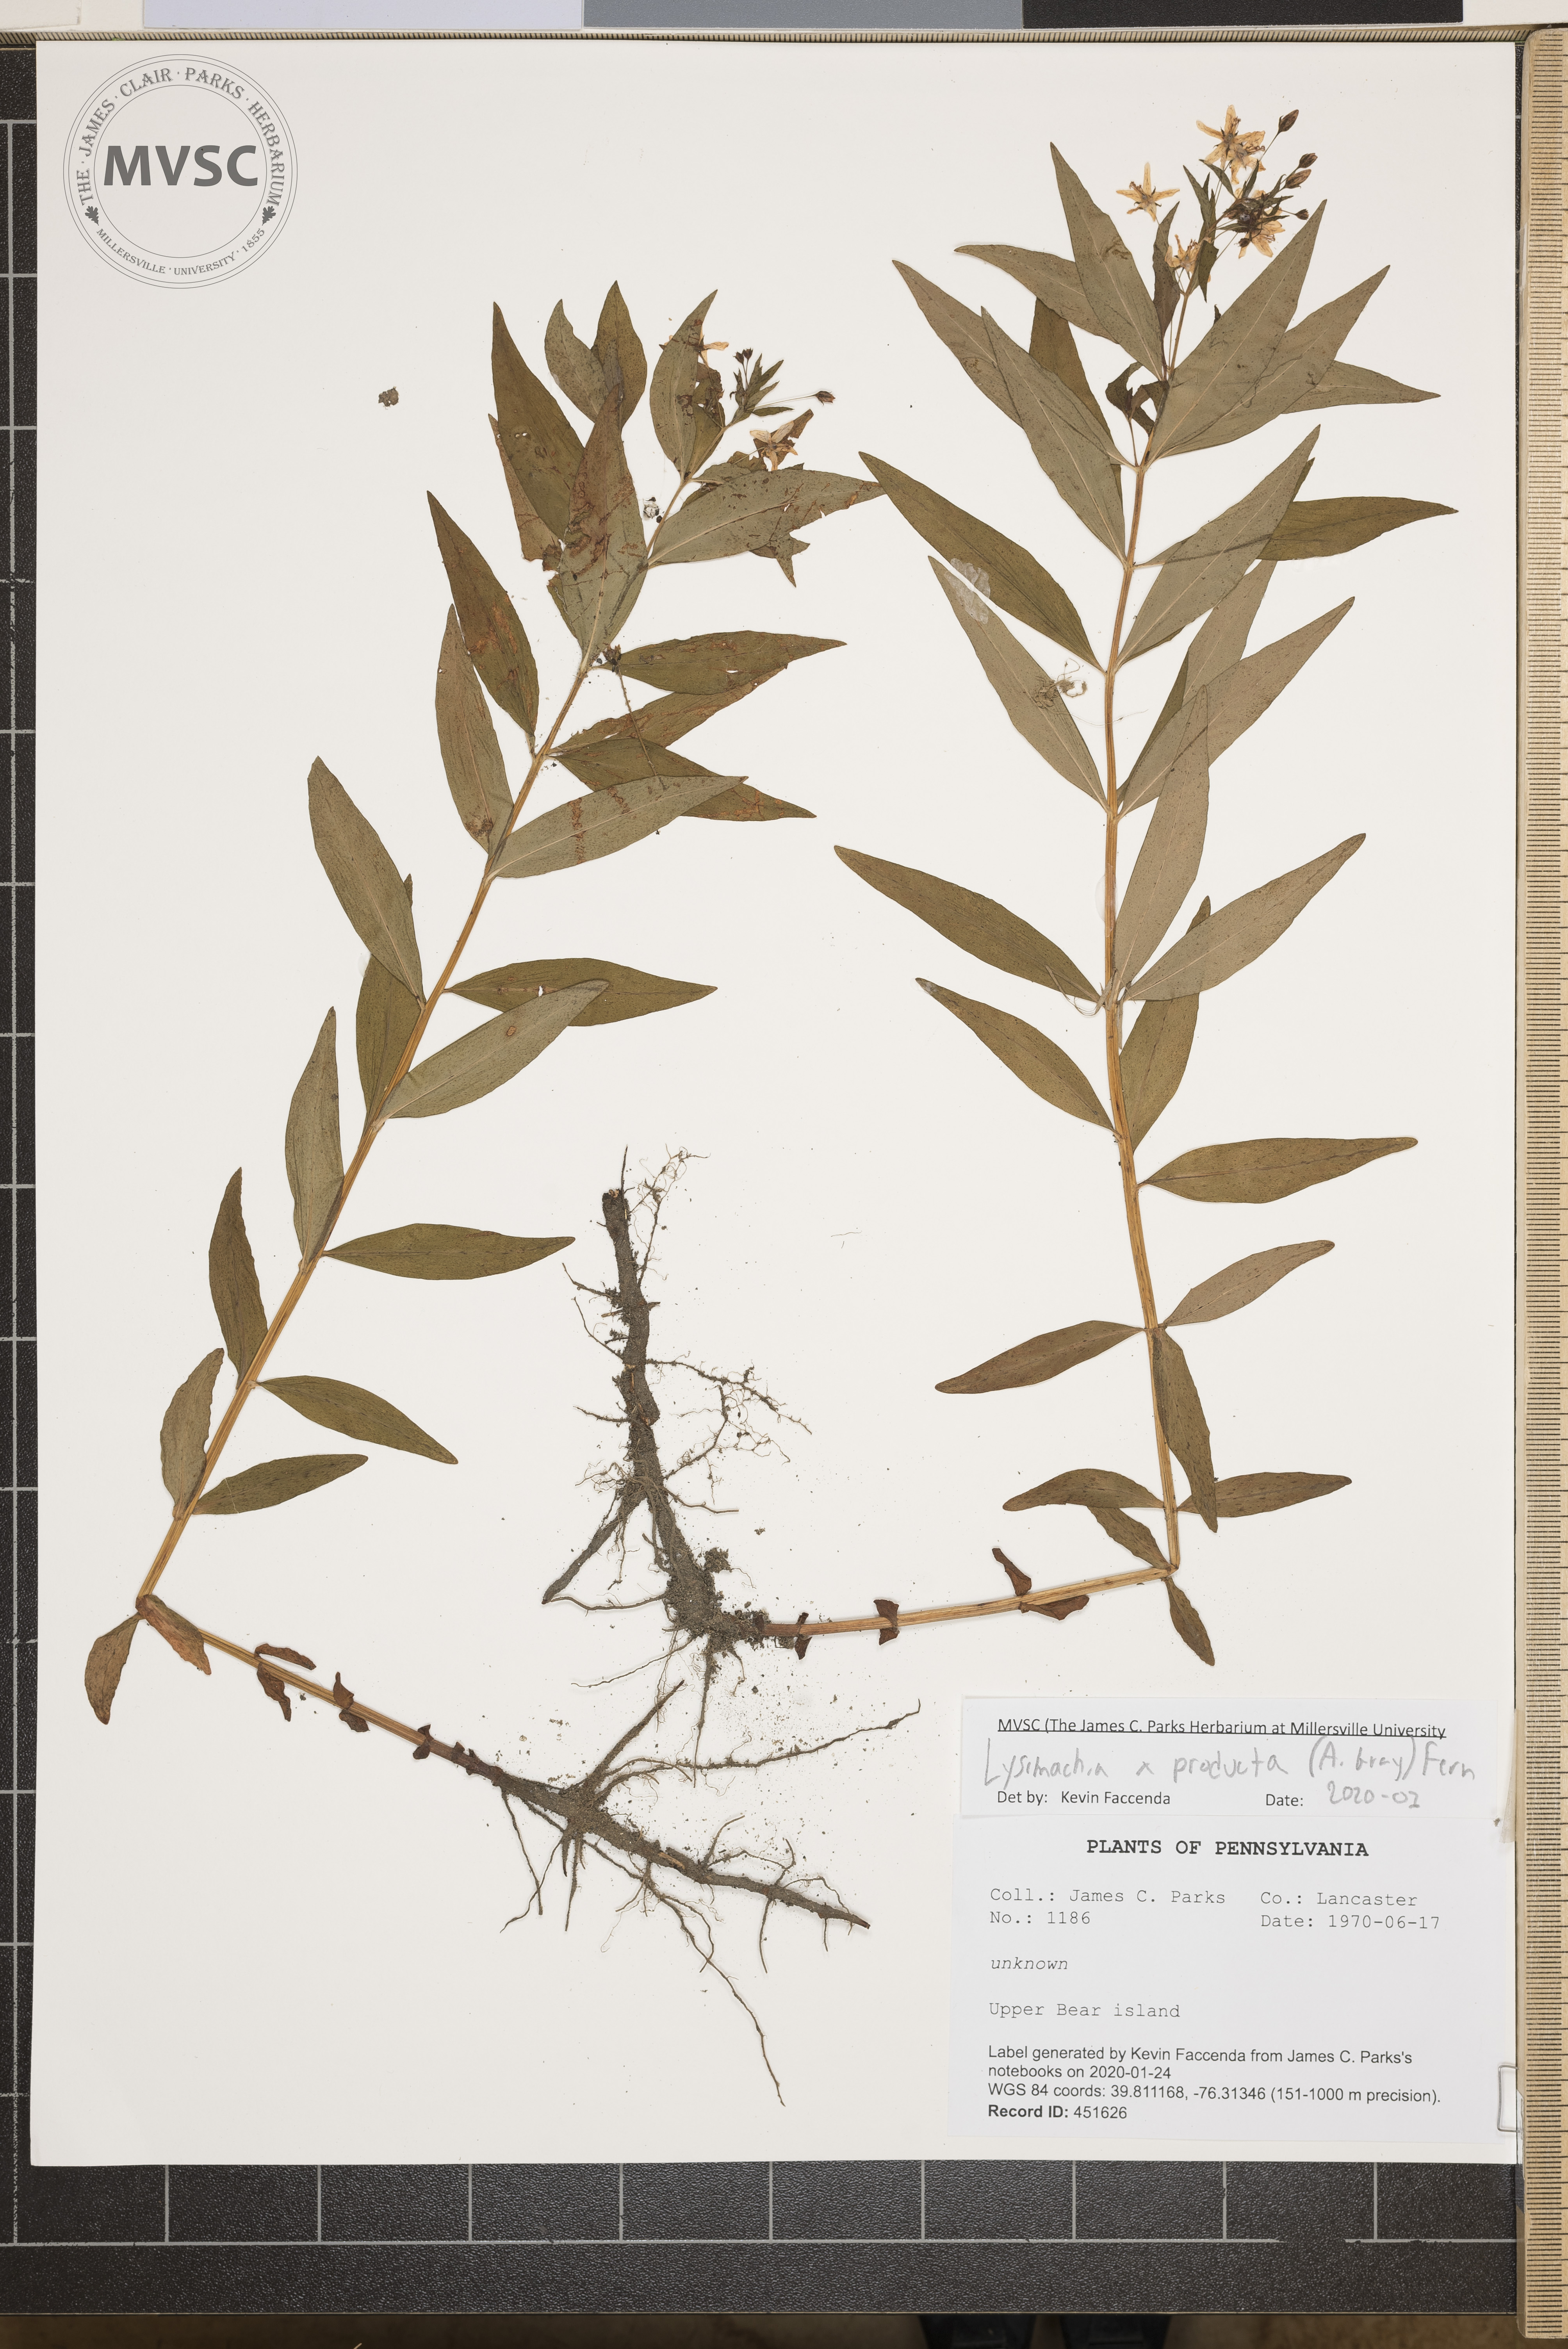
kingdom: Plantae
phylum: Tracheophyta
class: Magnoliopsida
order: Ericales
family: Primulaceae
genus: Lysimachia
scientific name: Lysimachia producta
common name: Loosestrife
